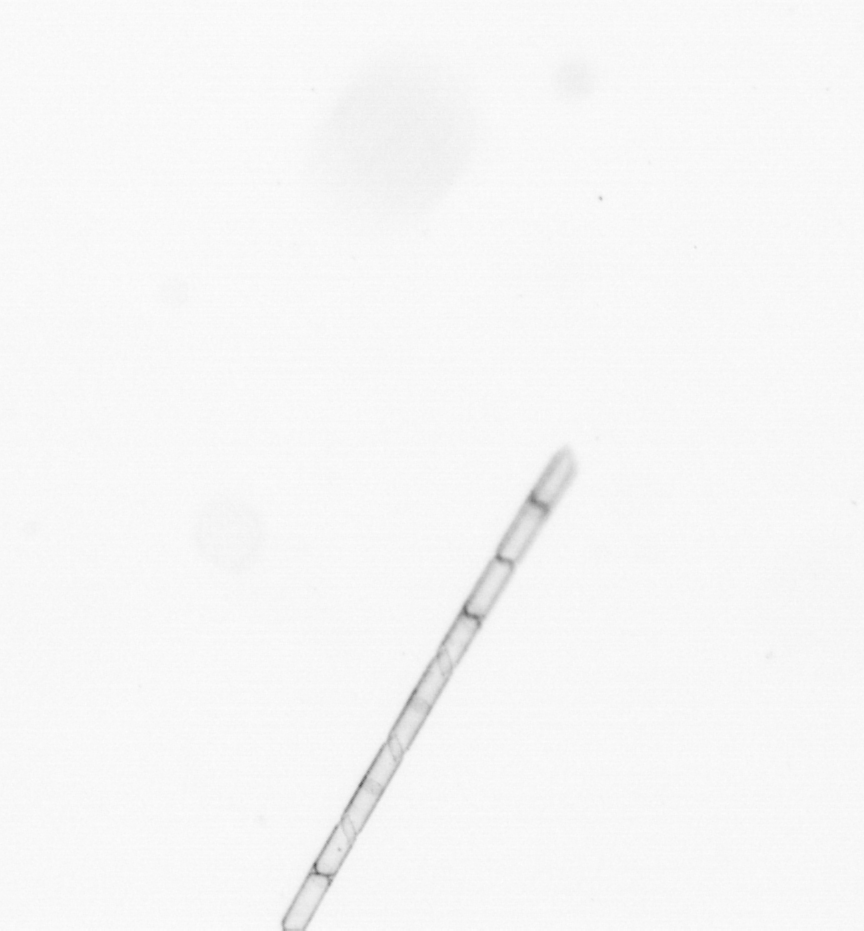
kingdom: Chromista
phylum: Ochrophyta
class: Bacillariophyceae
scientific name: Bacillariophyceae
